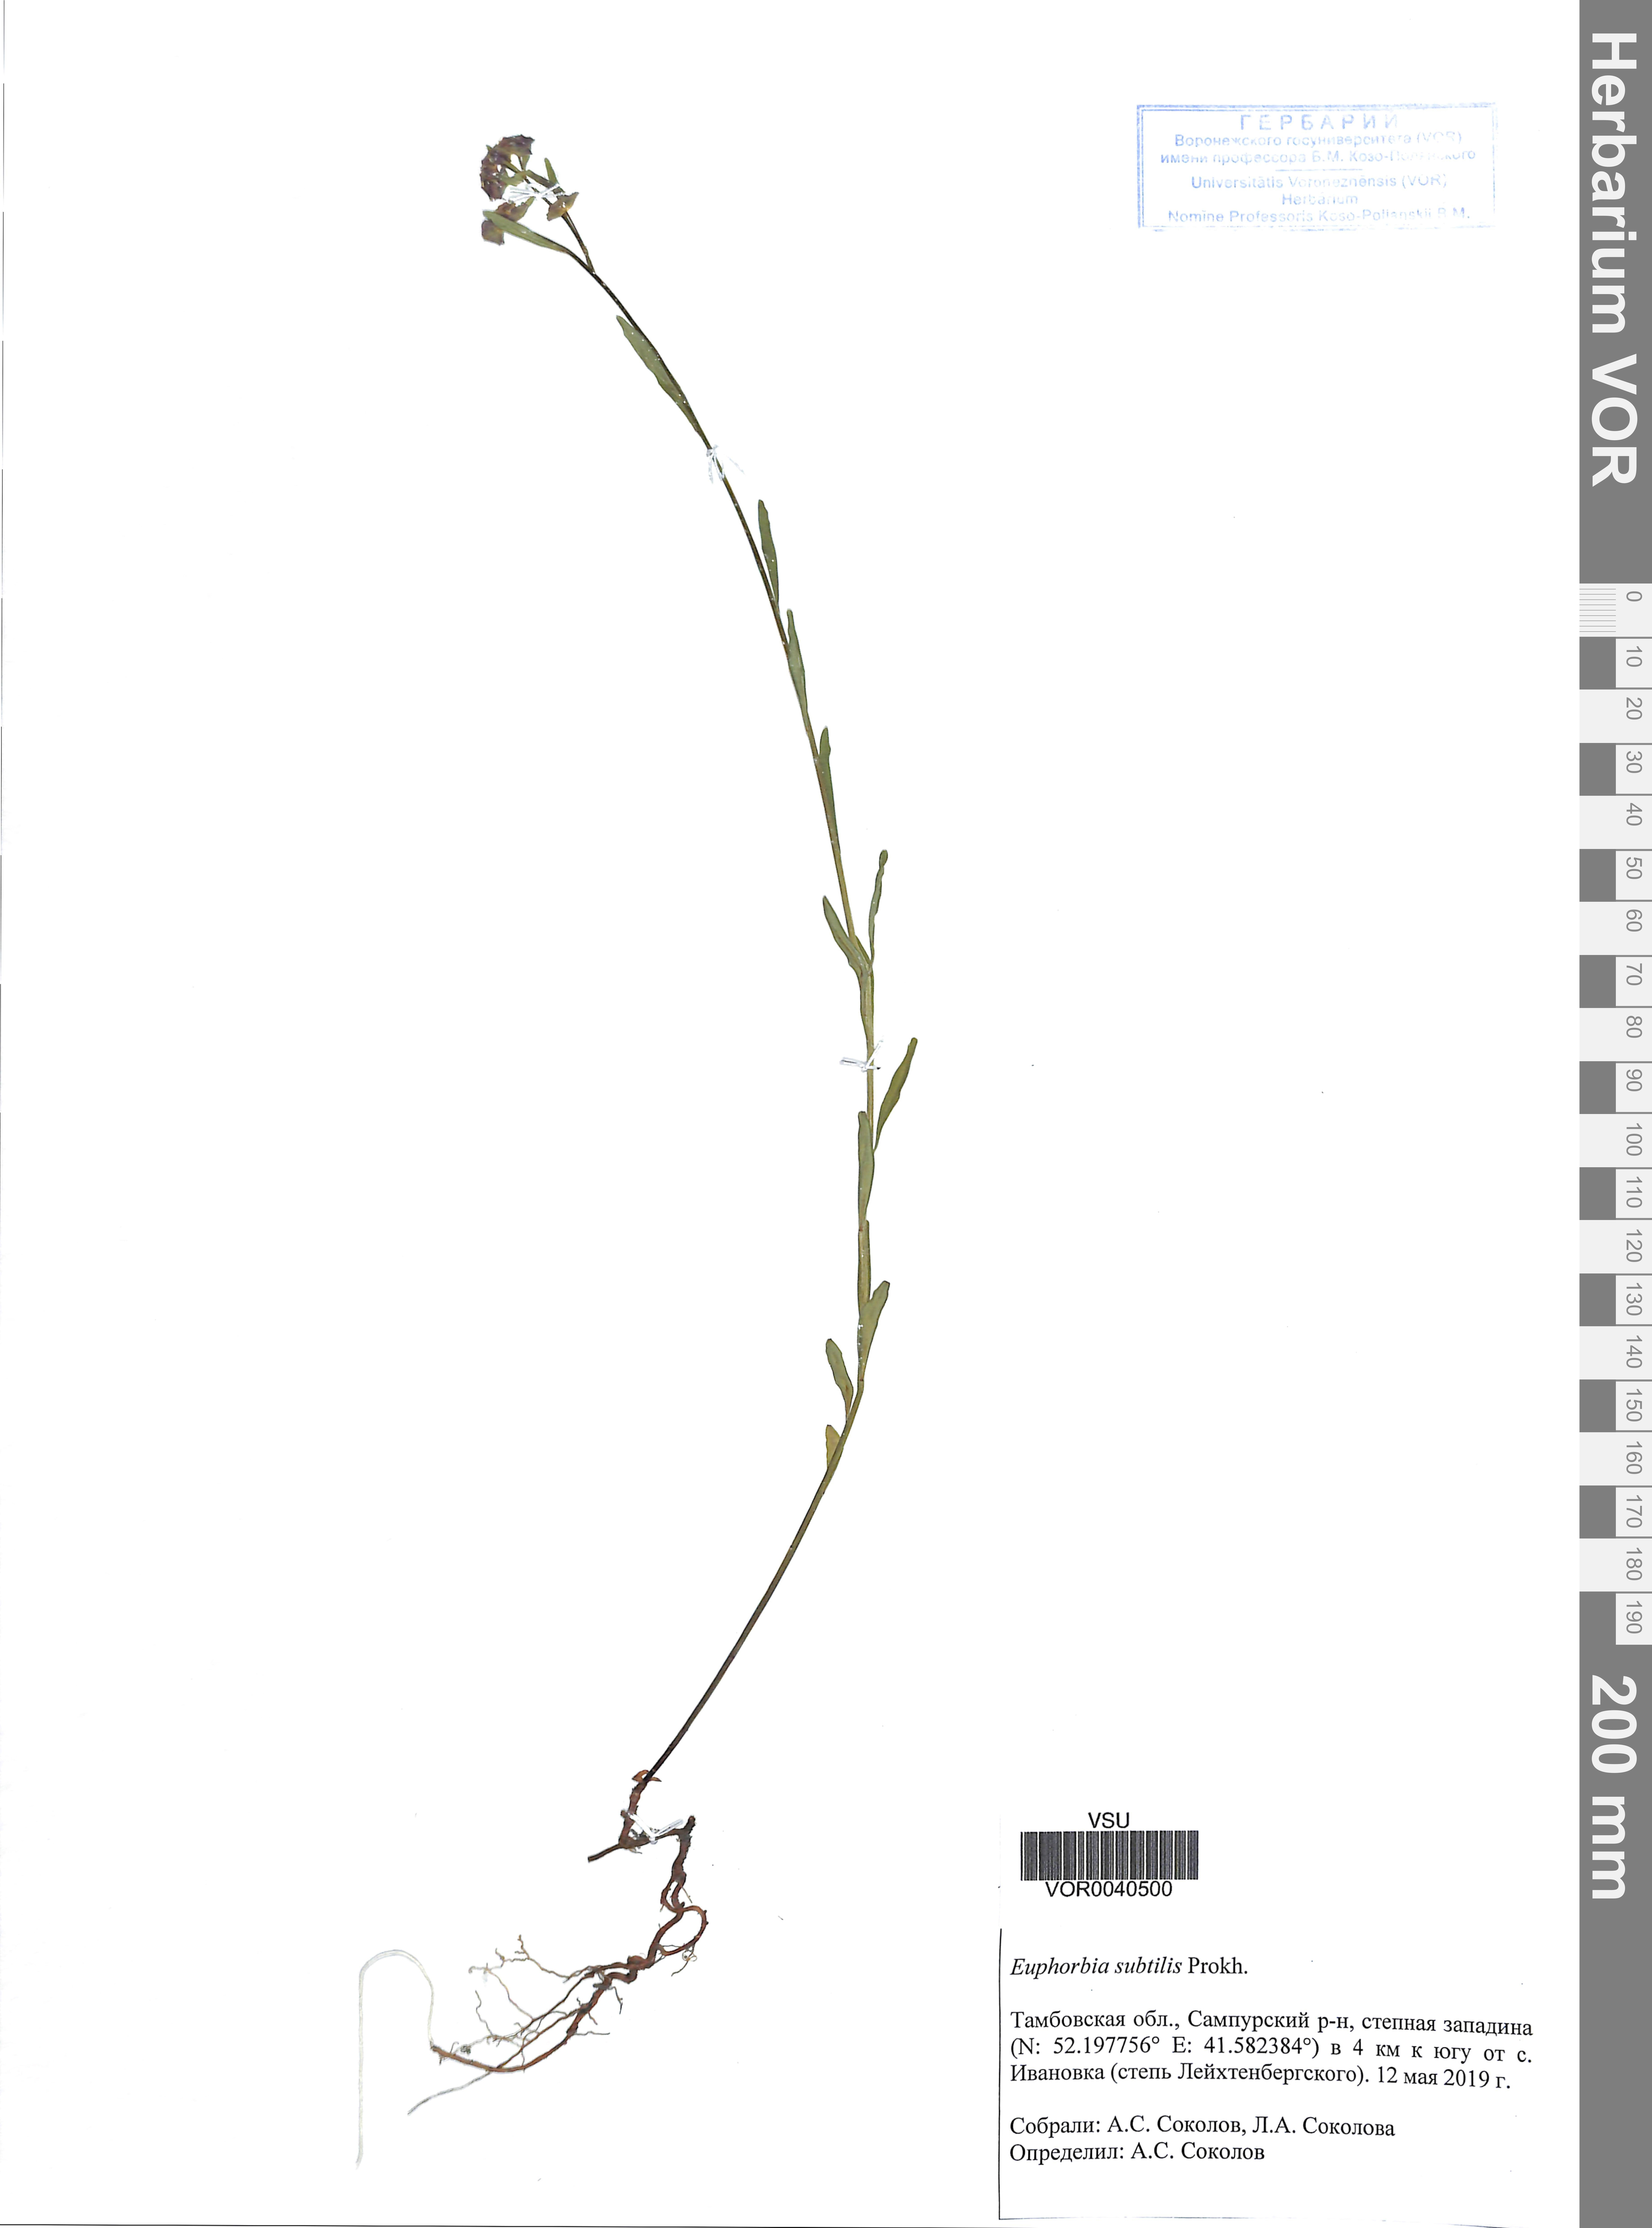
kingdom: Plantae
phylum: Tracheophyta
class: Magnoliopsida
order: Malpighiales
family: Euphorbiaceae
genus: Euphorbia
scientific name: Euphorbia microcarpa
